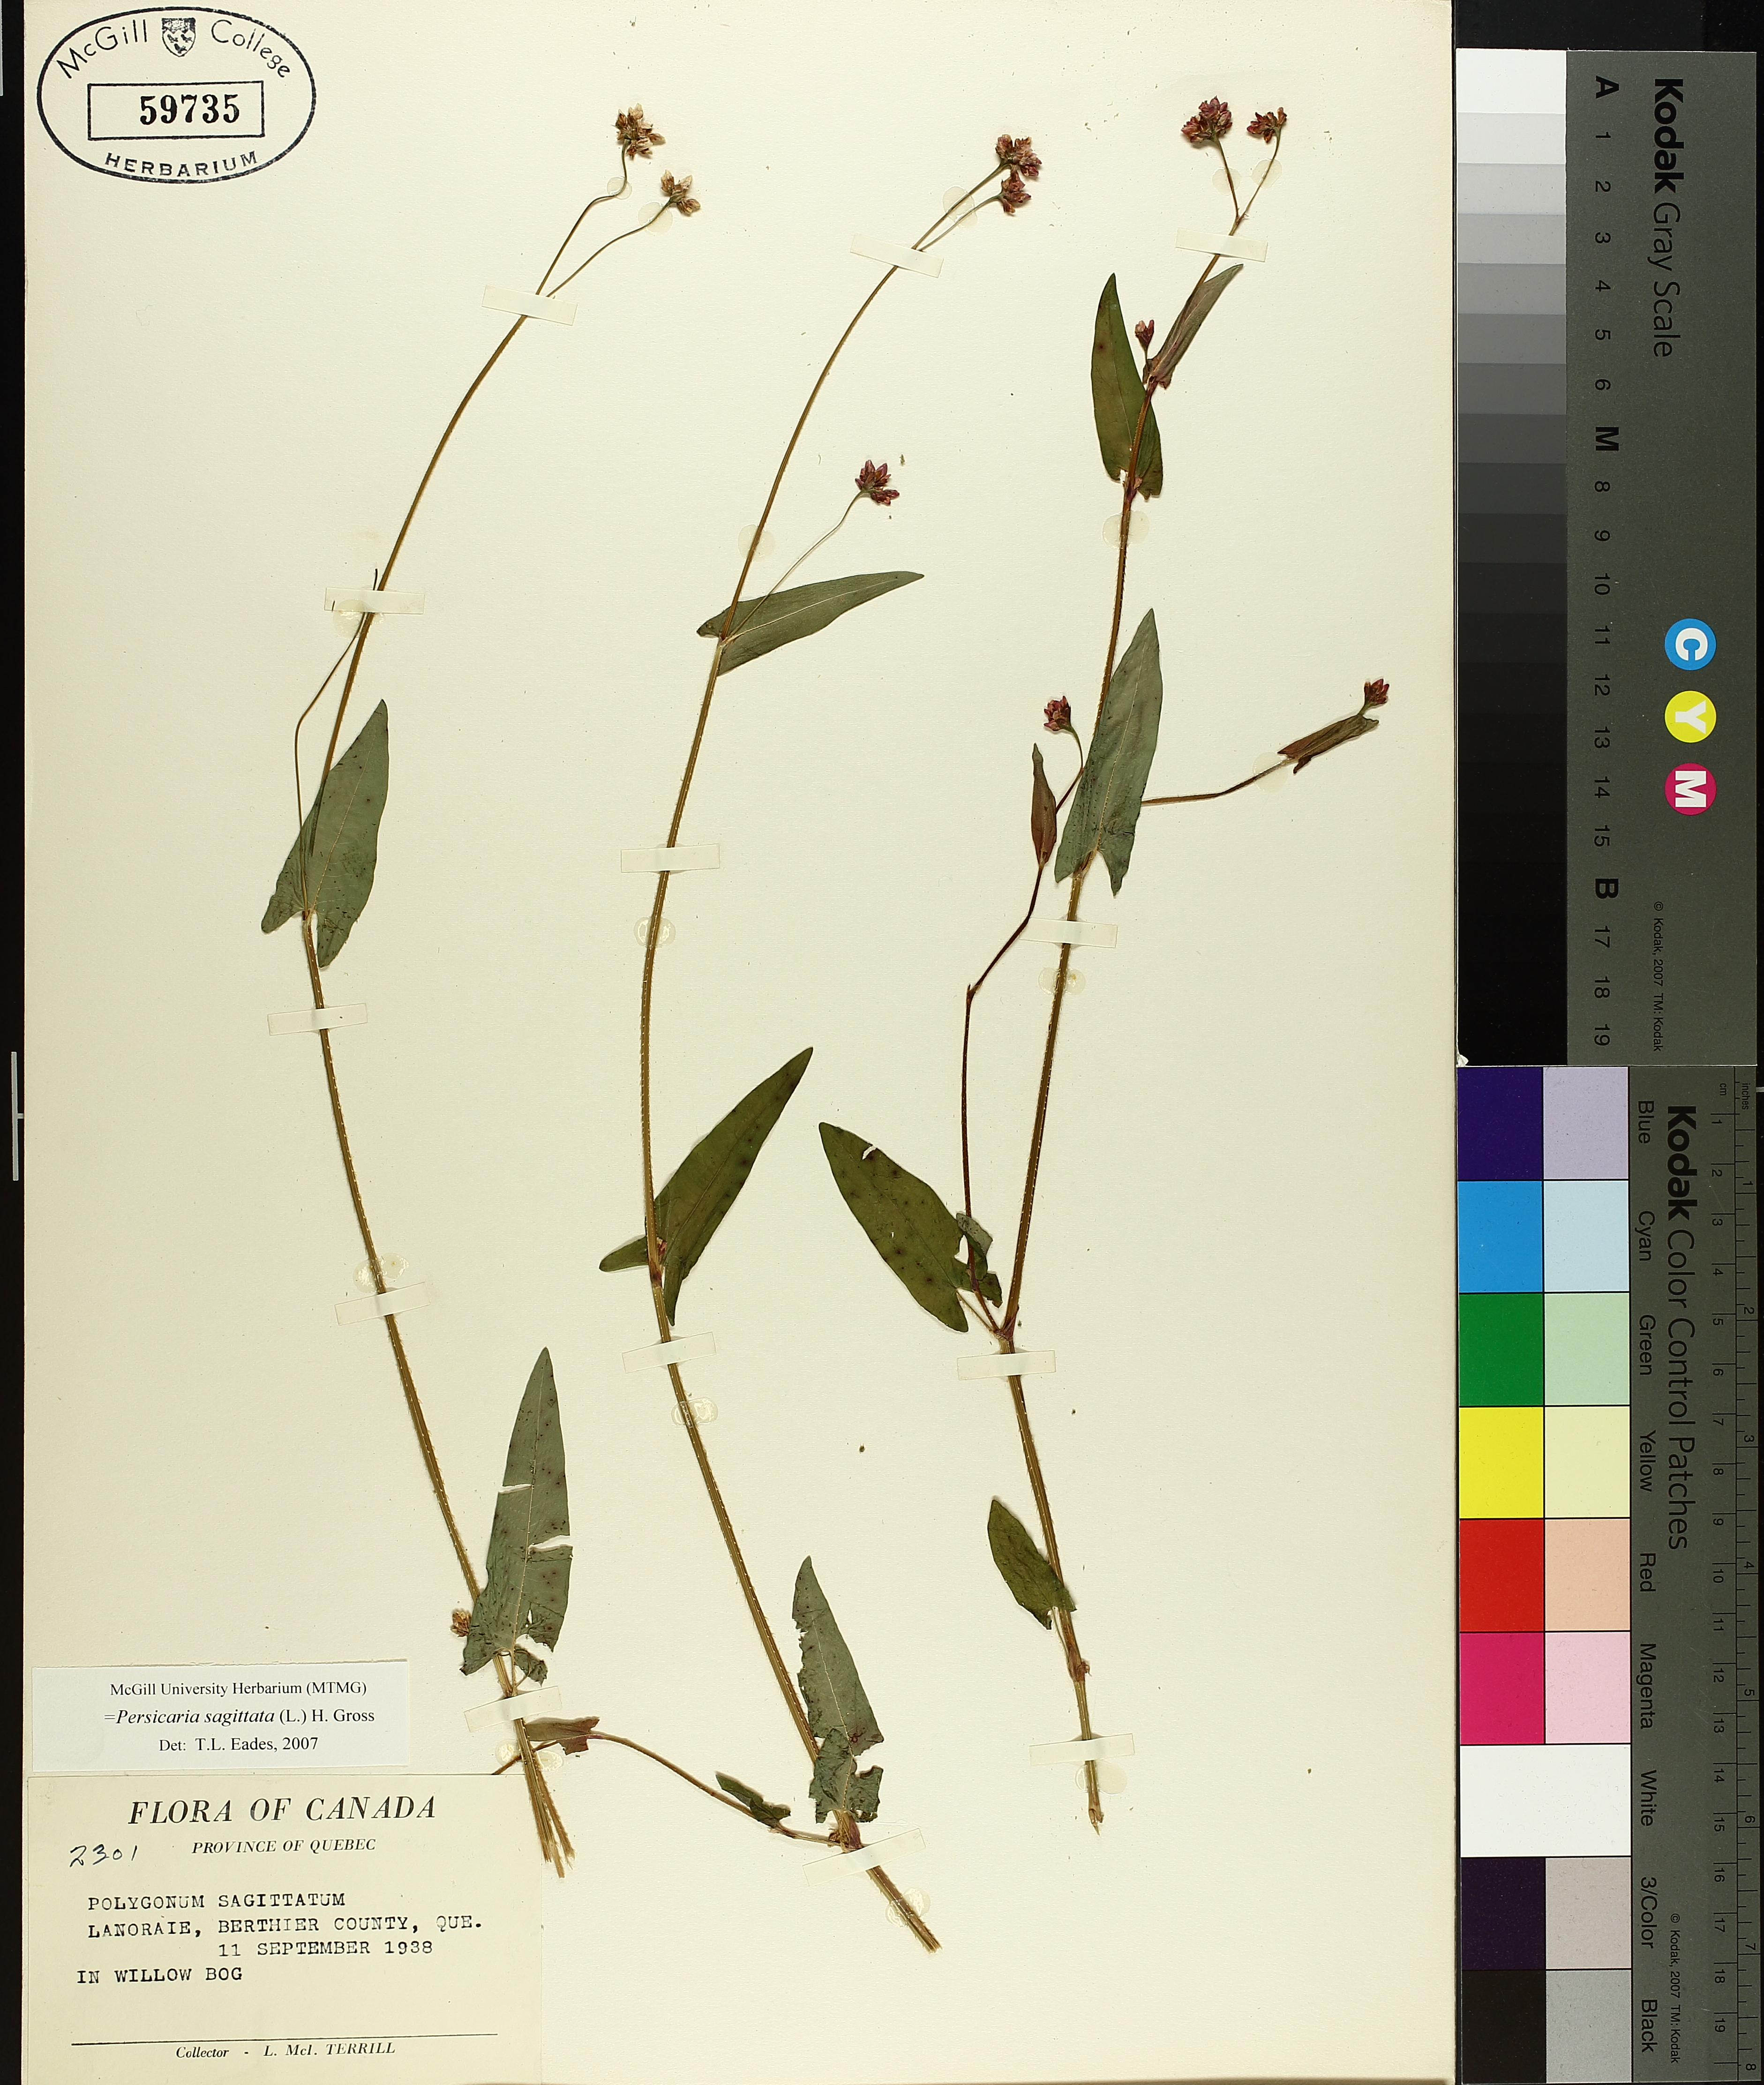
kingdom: Plantae
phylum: Tracheophyta
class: Magnoliopsida
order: Caryophyllales
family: Polygonaceae
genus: Persicaria
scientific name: Persicaria sagittata
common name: American tearthumb
